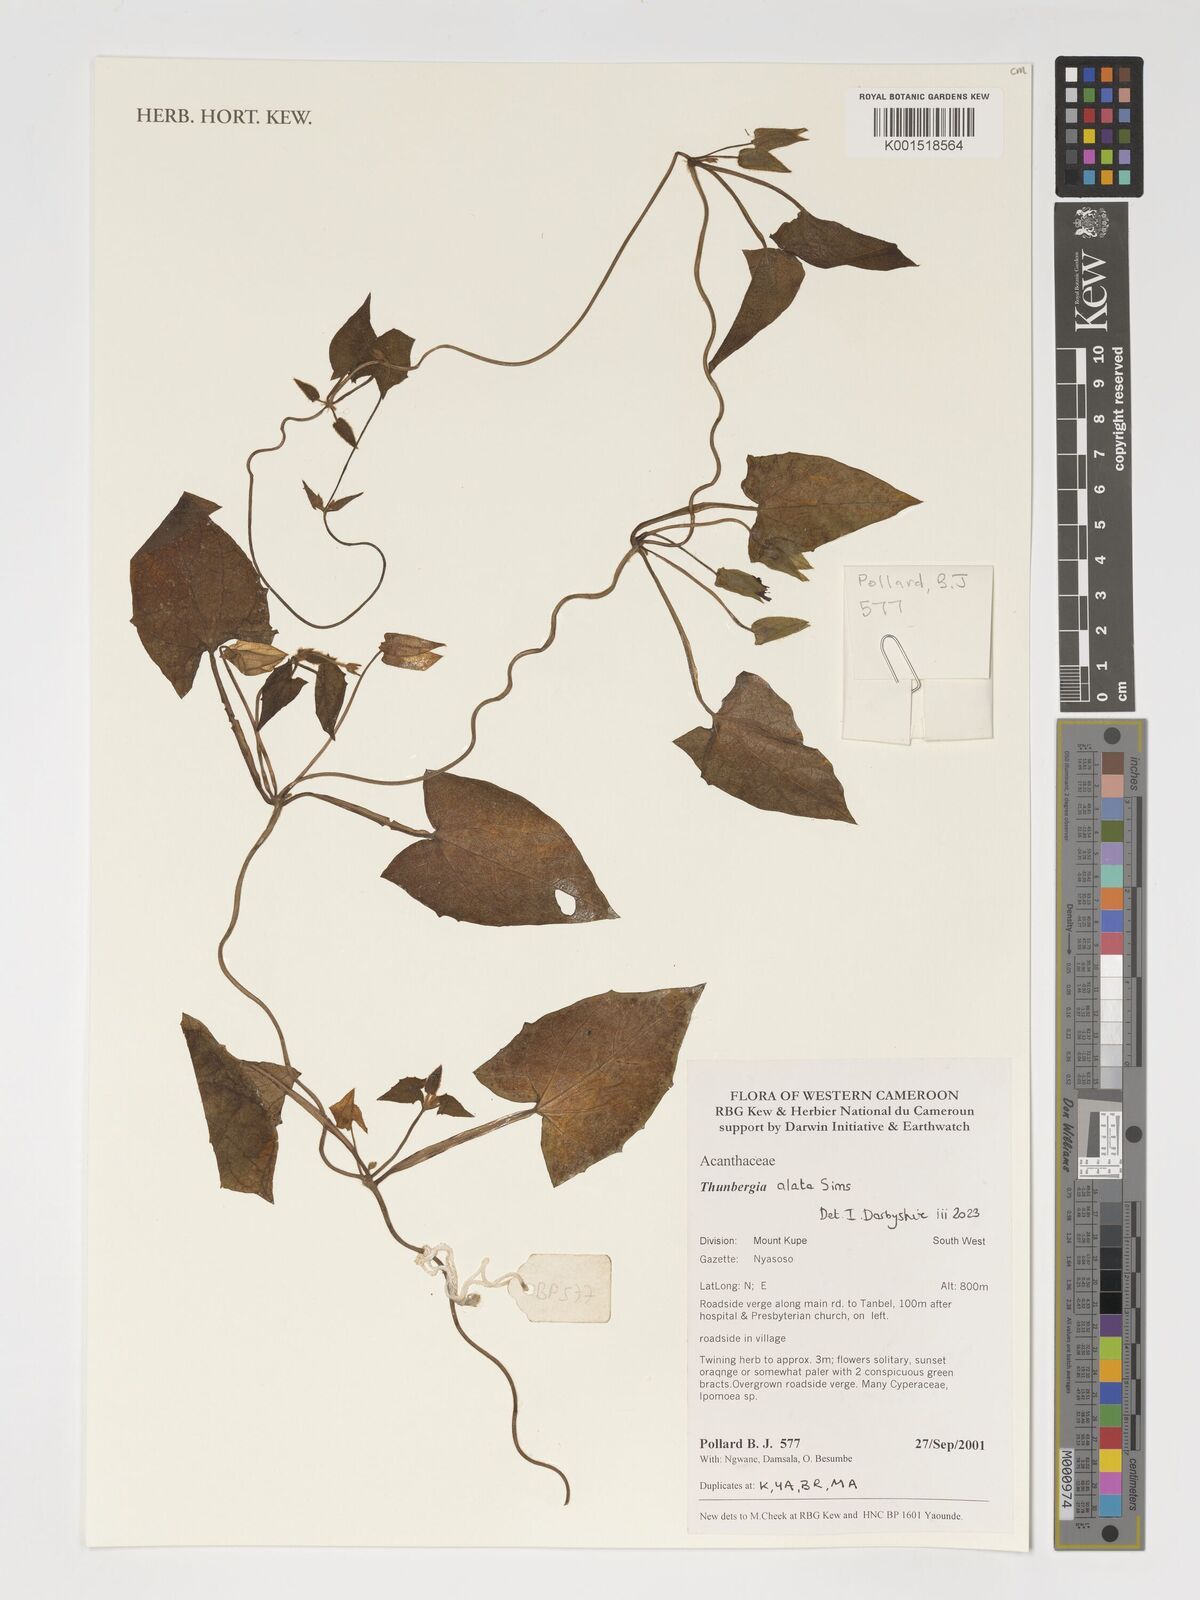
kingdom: Plantae
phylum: Tracheophyta
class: Magnoliopsida
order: Lamiales
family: Acanthaceae
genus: Thunbergia
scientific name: Thunbergia alata
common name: Blackeyed susan vine
